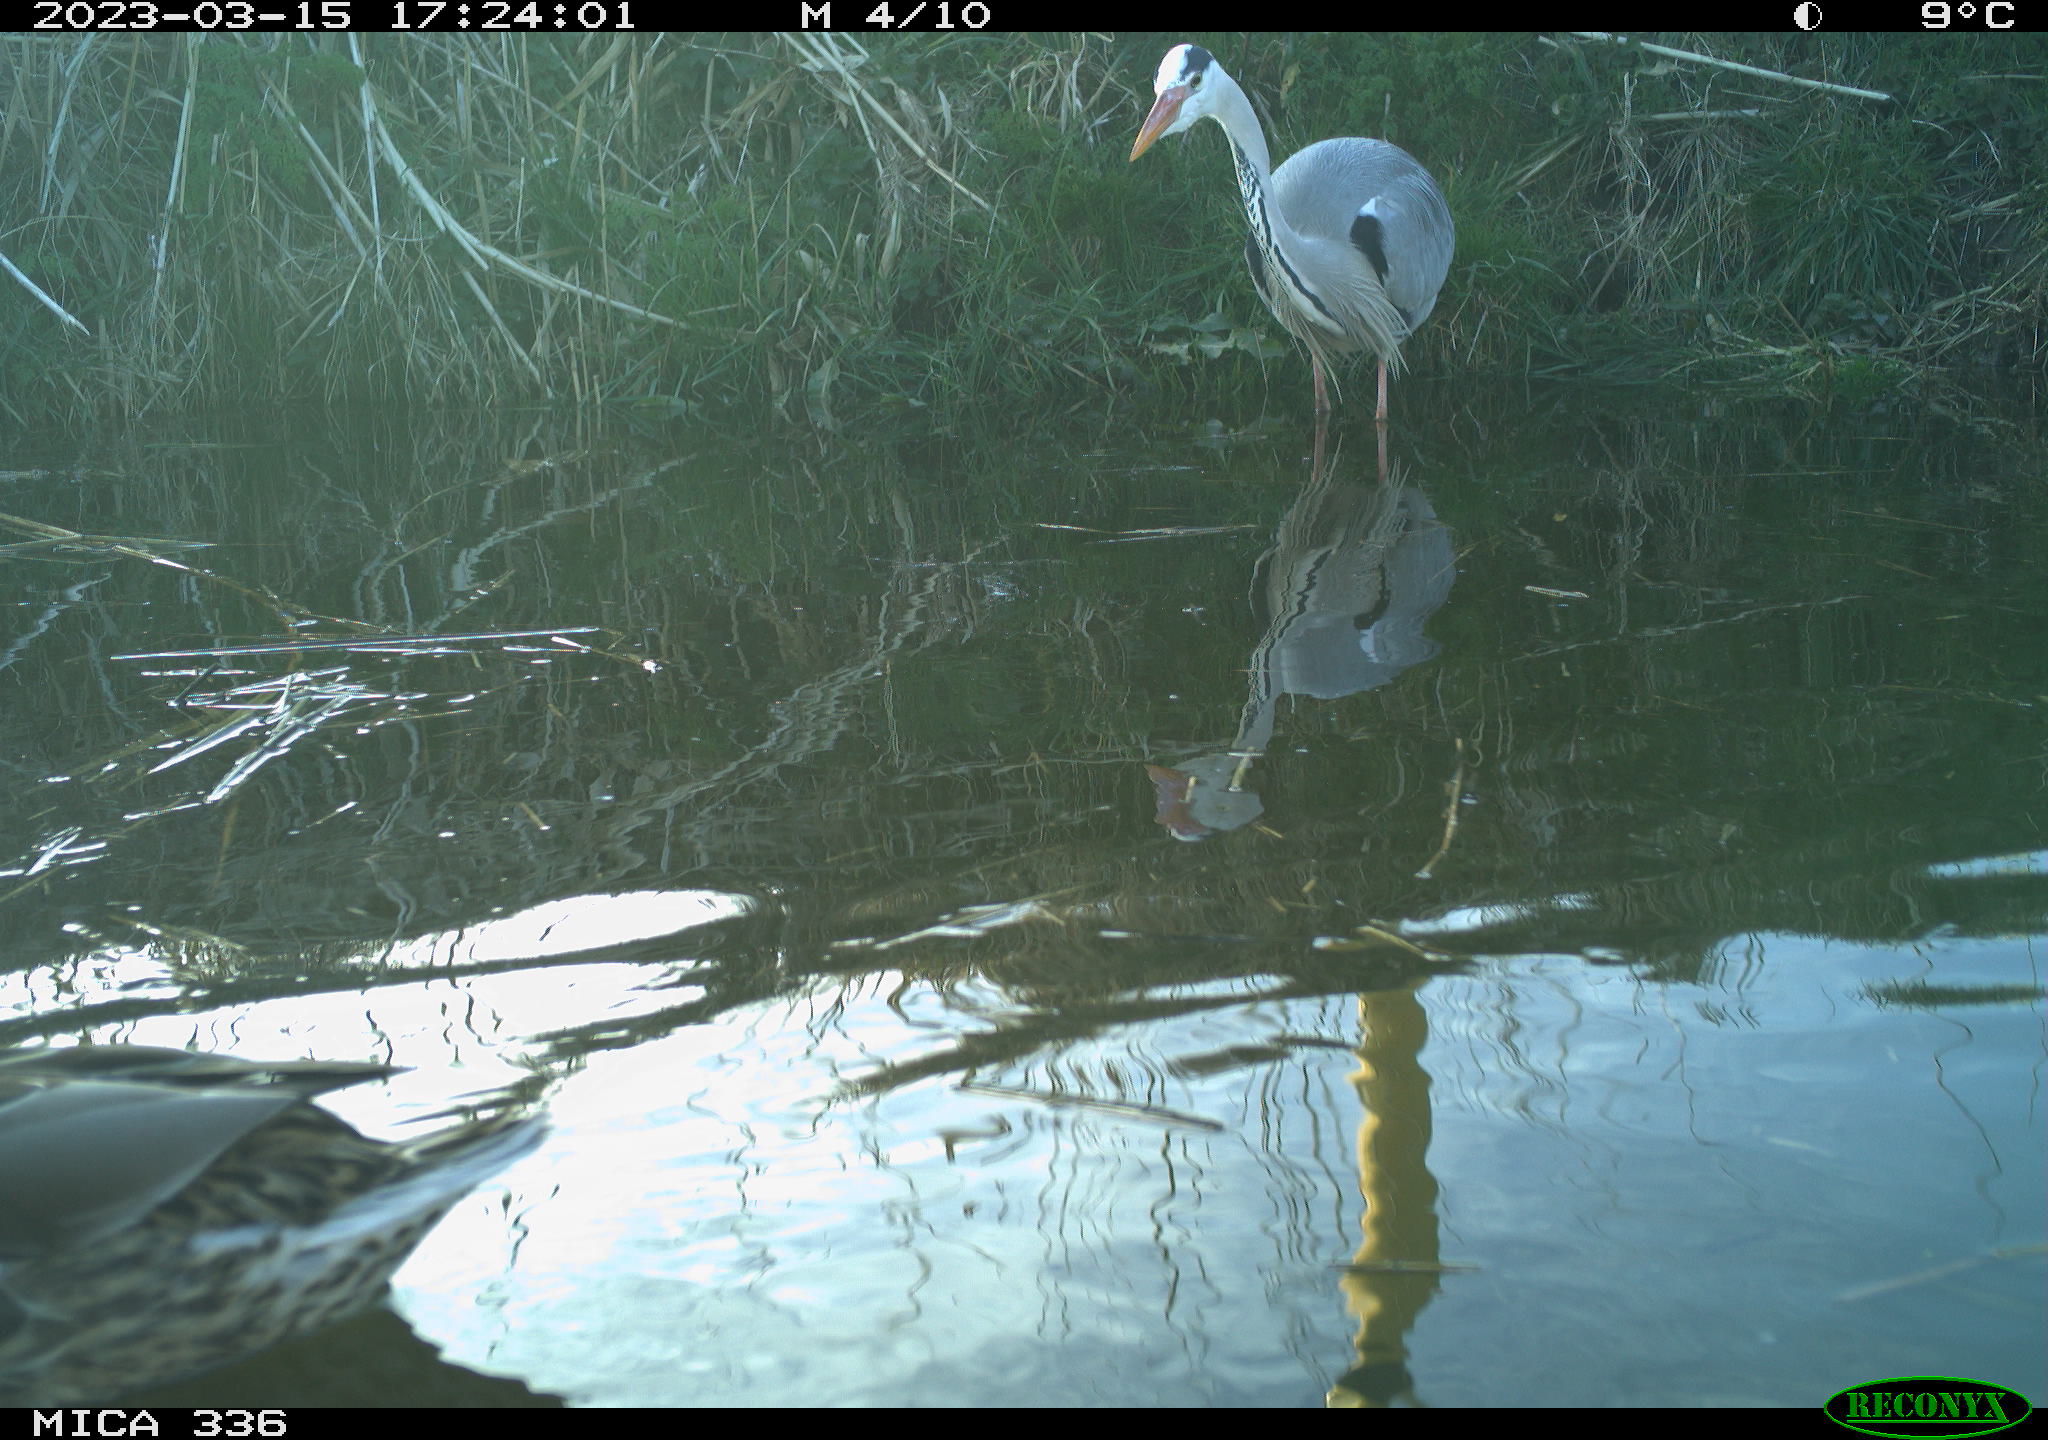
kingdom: Animalia
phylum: Chordata
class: Aves
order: Pelecaniformes
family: Ardeidae
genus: Ardea
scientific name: Ardea cinerea
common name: Grey heron
